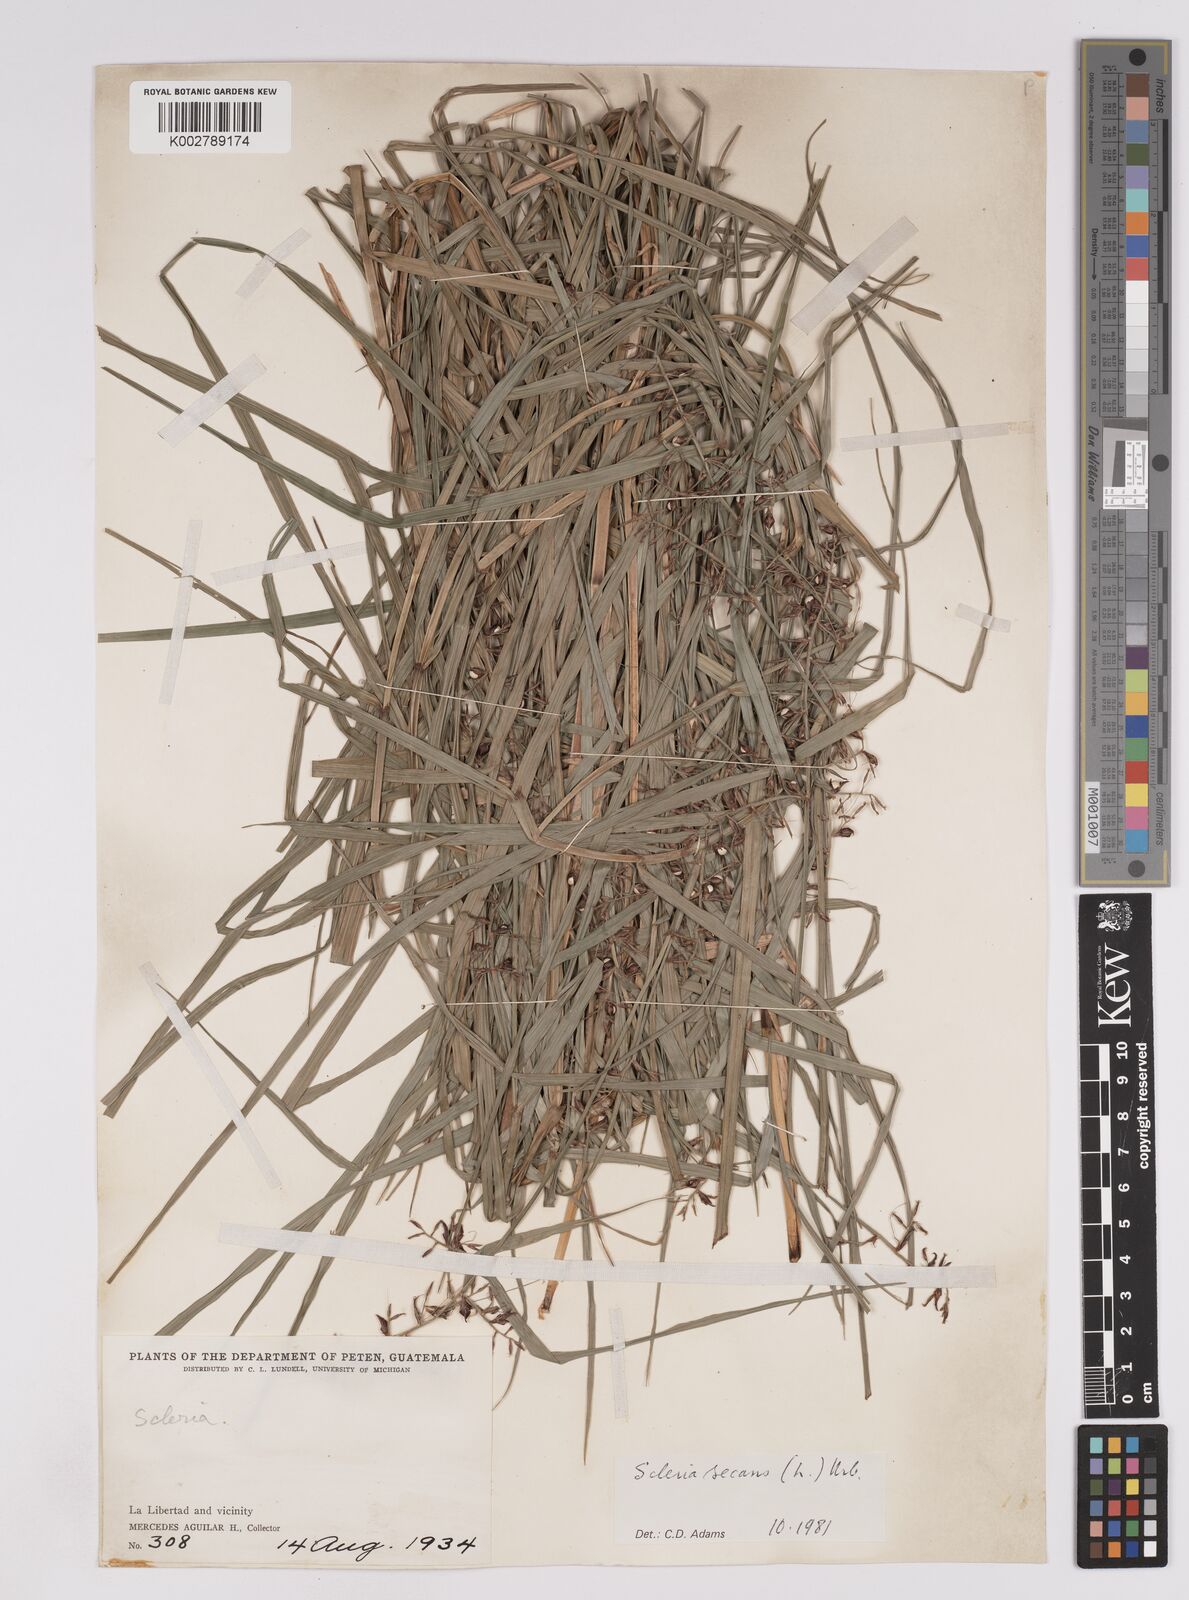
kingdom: Plantae
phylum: Tracheophyta
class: Liliopsida
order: Poales
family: Cyperaceae
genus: Scleria
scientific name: Scleria secans
